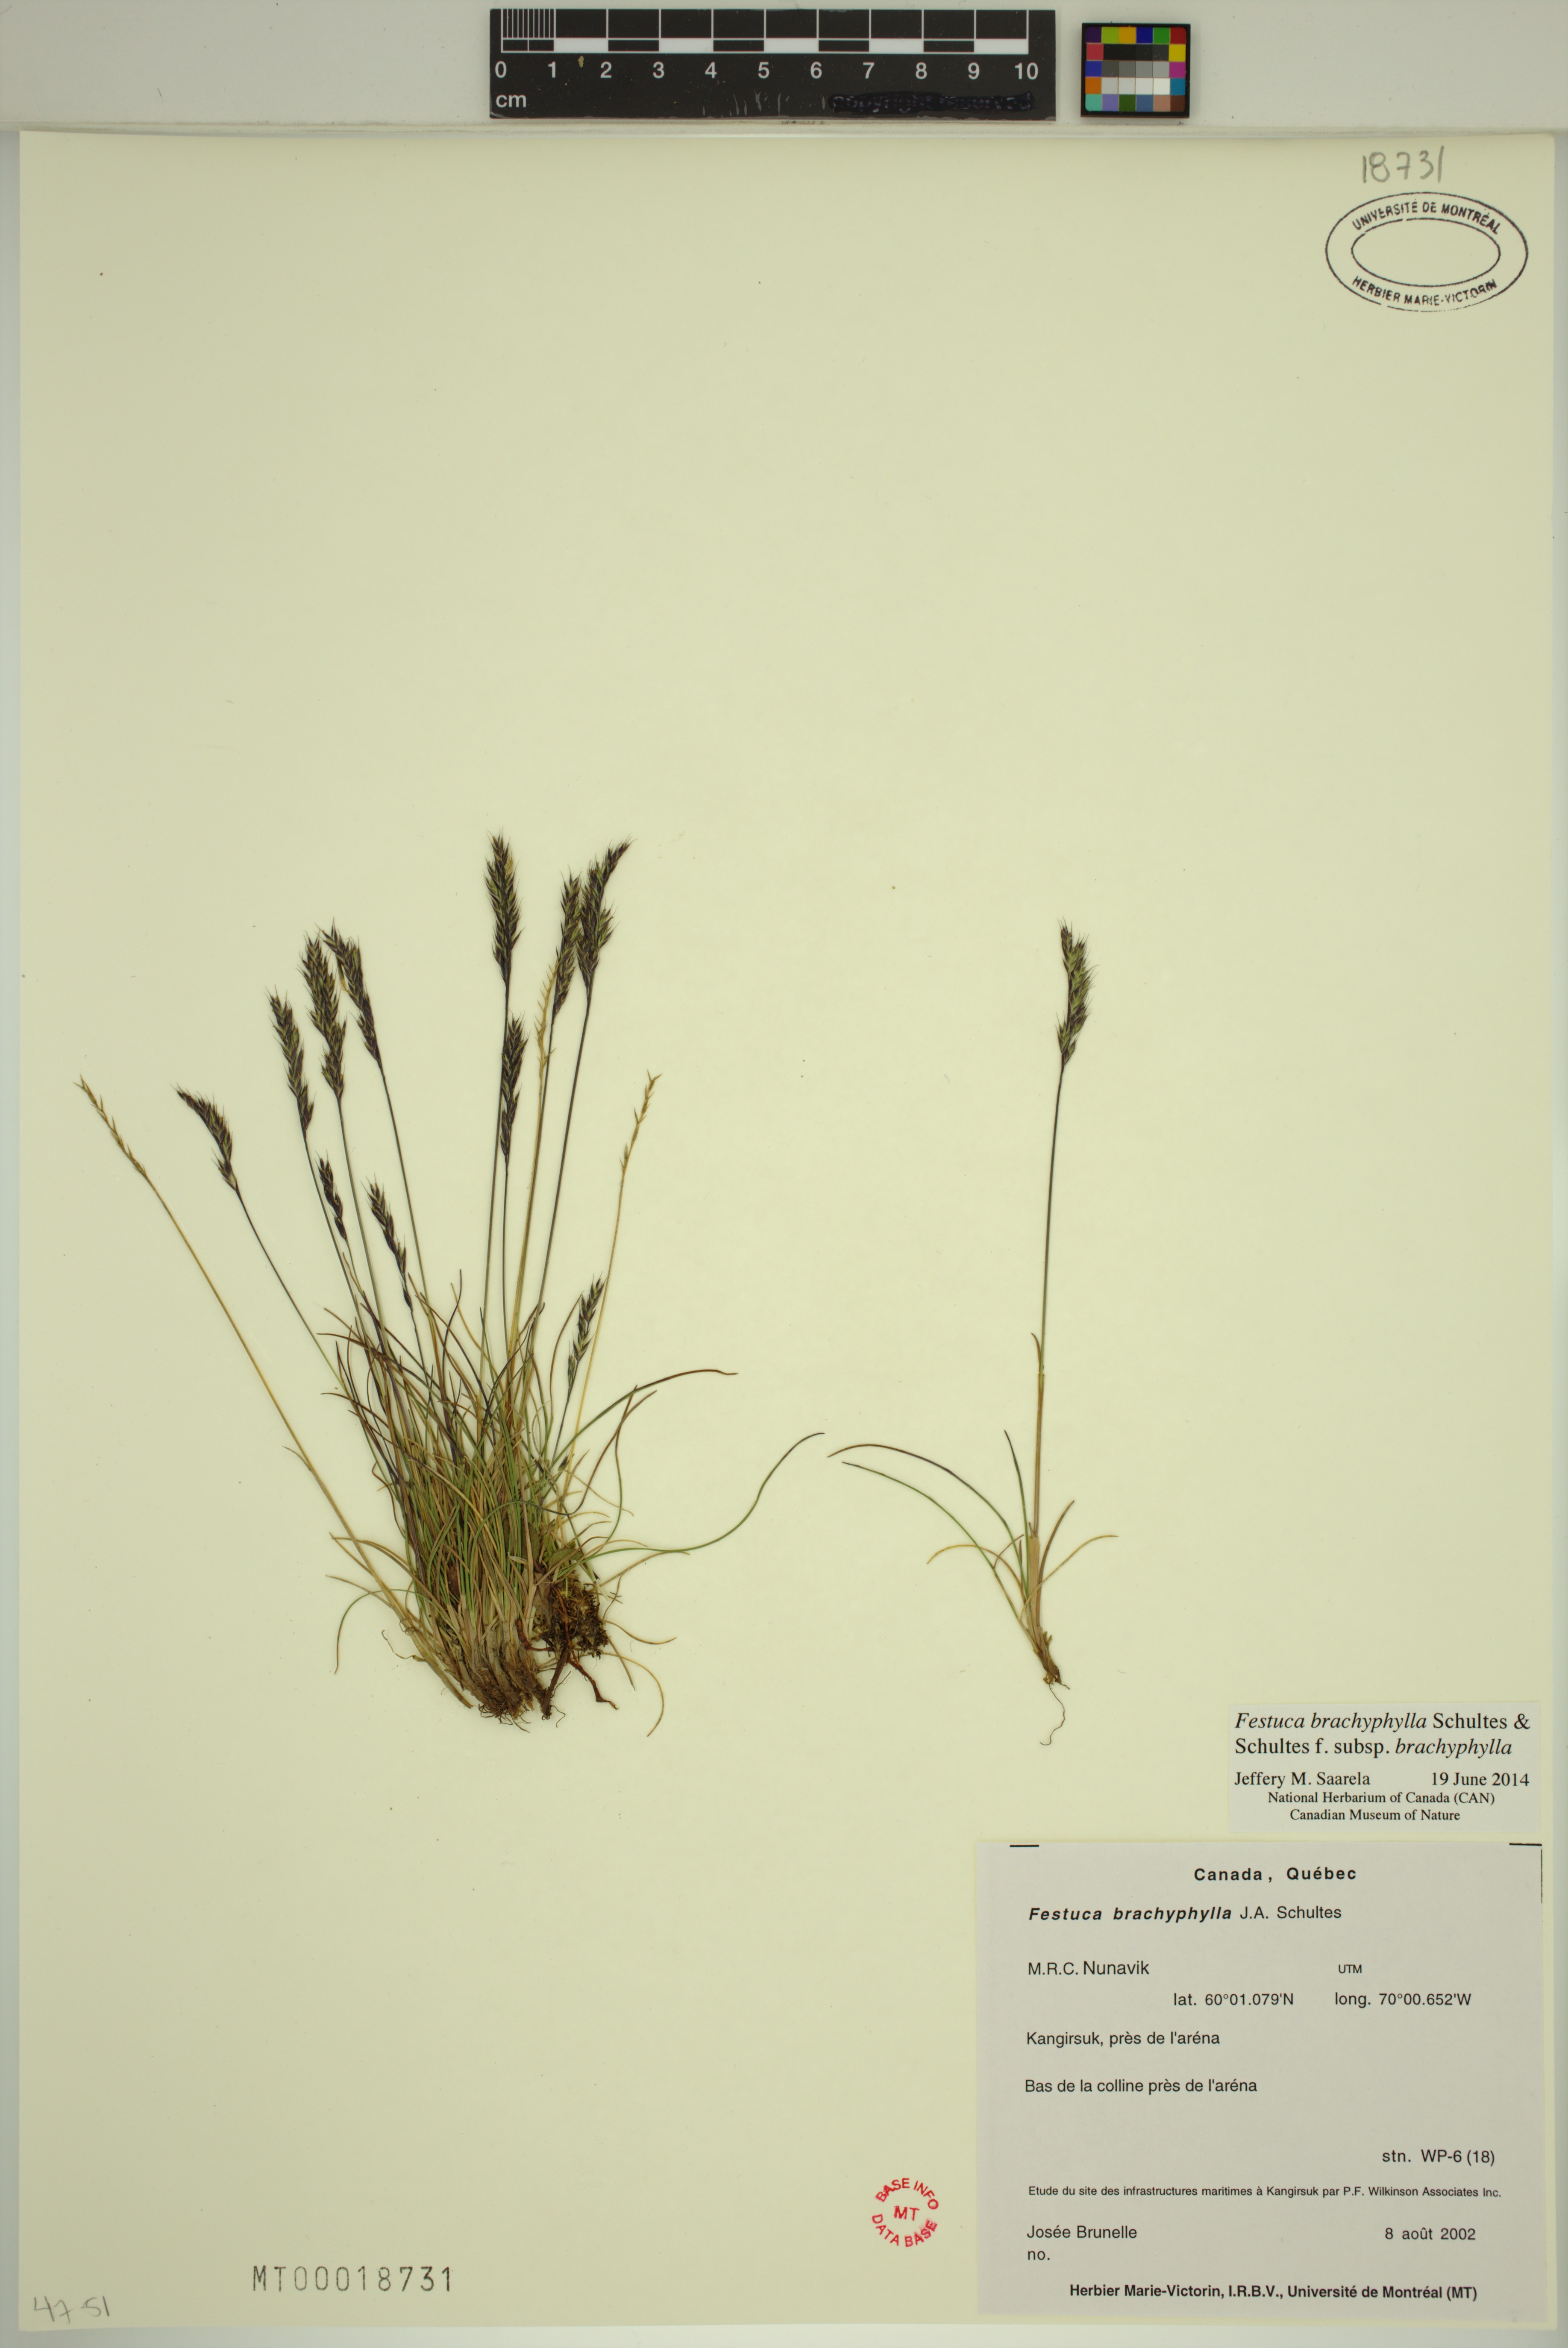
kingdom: Plantae
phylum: Tracheophyta
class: Liliopsida
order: Poales
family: Poaceae
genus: Festuca
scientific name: Festuca brachyphylla
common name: Alpine fescue
